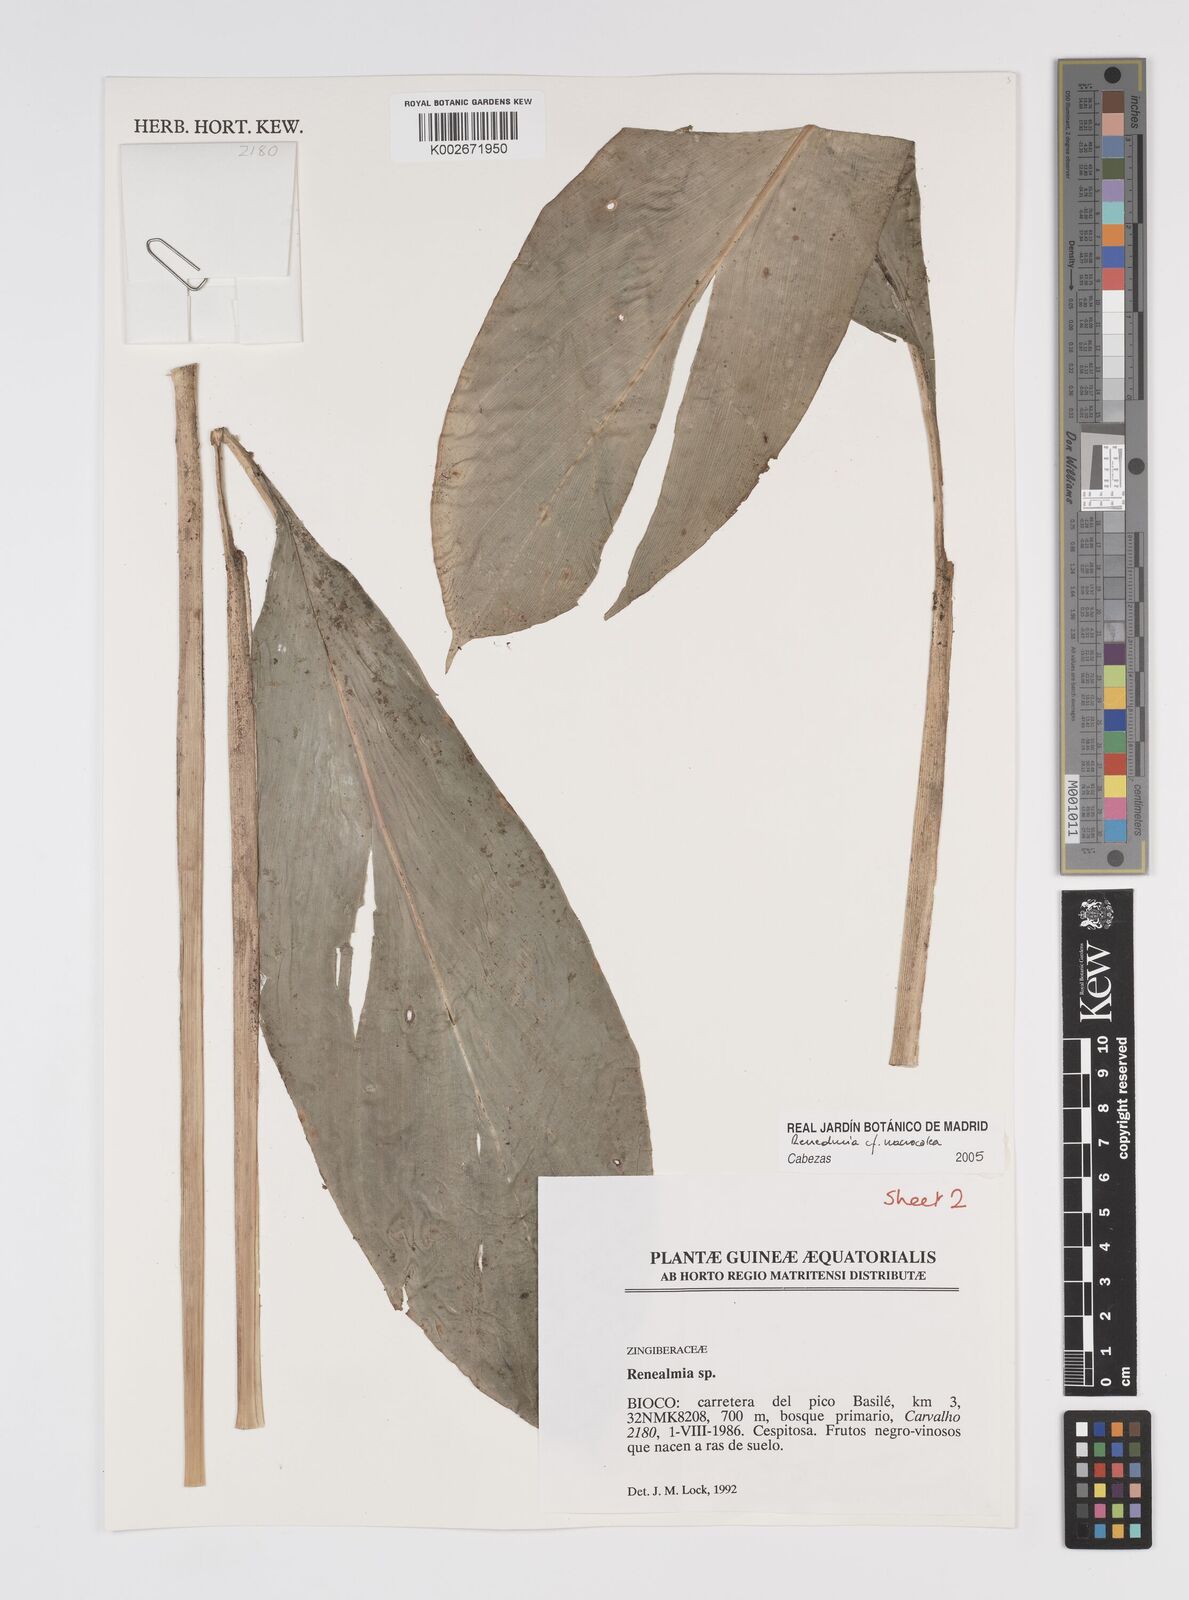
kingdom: Plantae
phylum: Tracheophyta
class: Liliopsida
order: Zingiberales
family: Zingiberaceae
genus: Renealmia
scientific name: Renealmia
